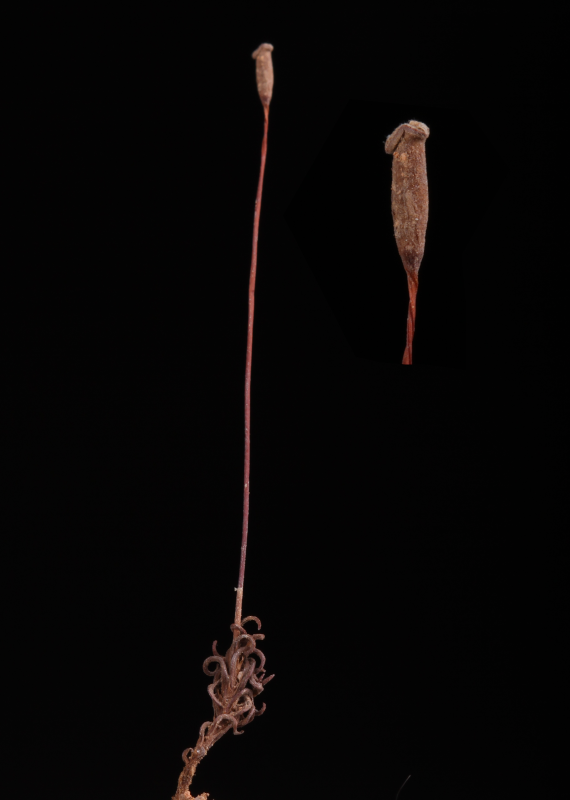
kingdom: Plantae
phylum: Bryophyta
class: Polytrichopsida
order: Polytrichales
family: Polytrichaceae
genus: Pogonatum
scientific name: Pogonatum neesii
